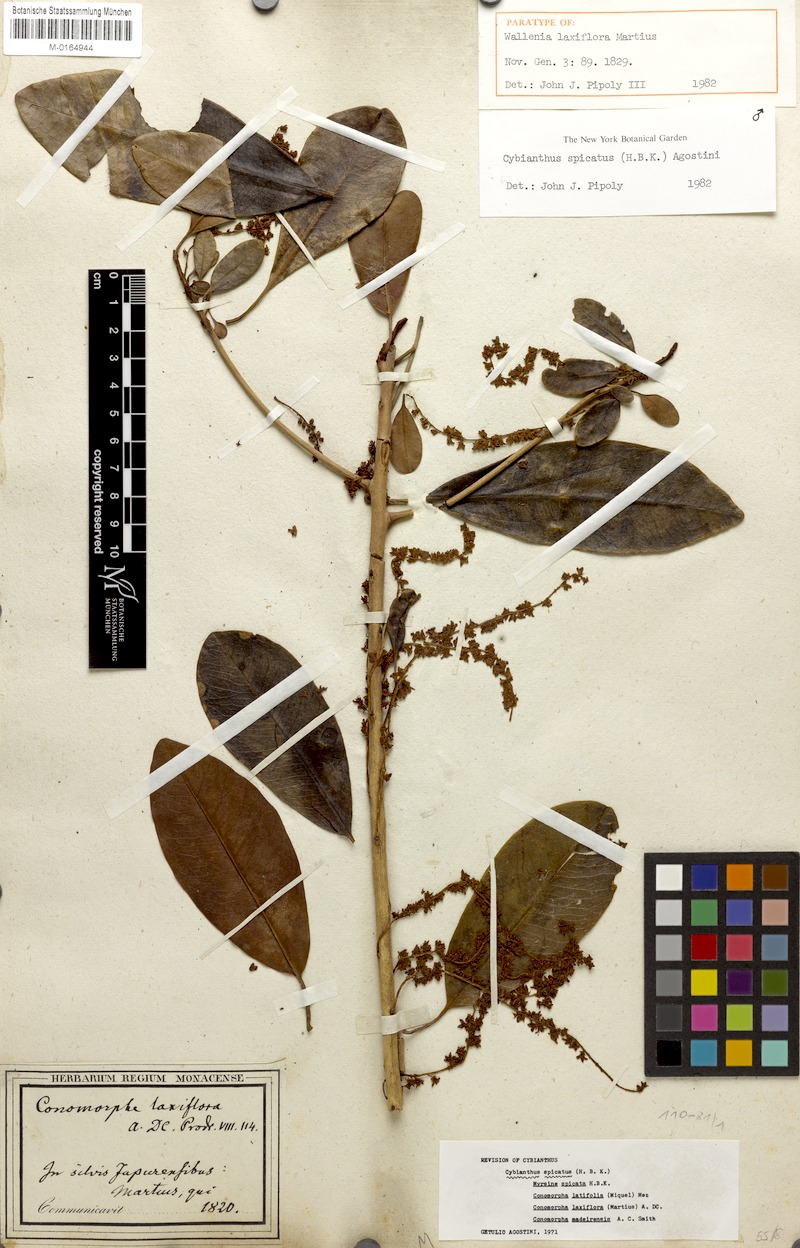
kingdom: Plantae
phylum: Tracheophyta
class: Magnoliopsida
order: Ericales
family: Primulaceae
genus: Cybianthus
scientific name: Cybianthus spicatus
